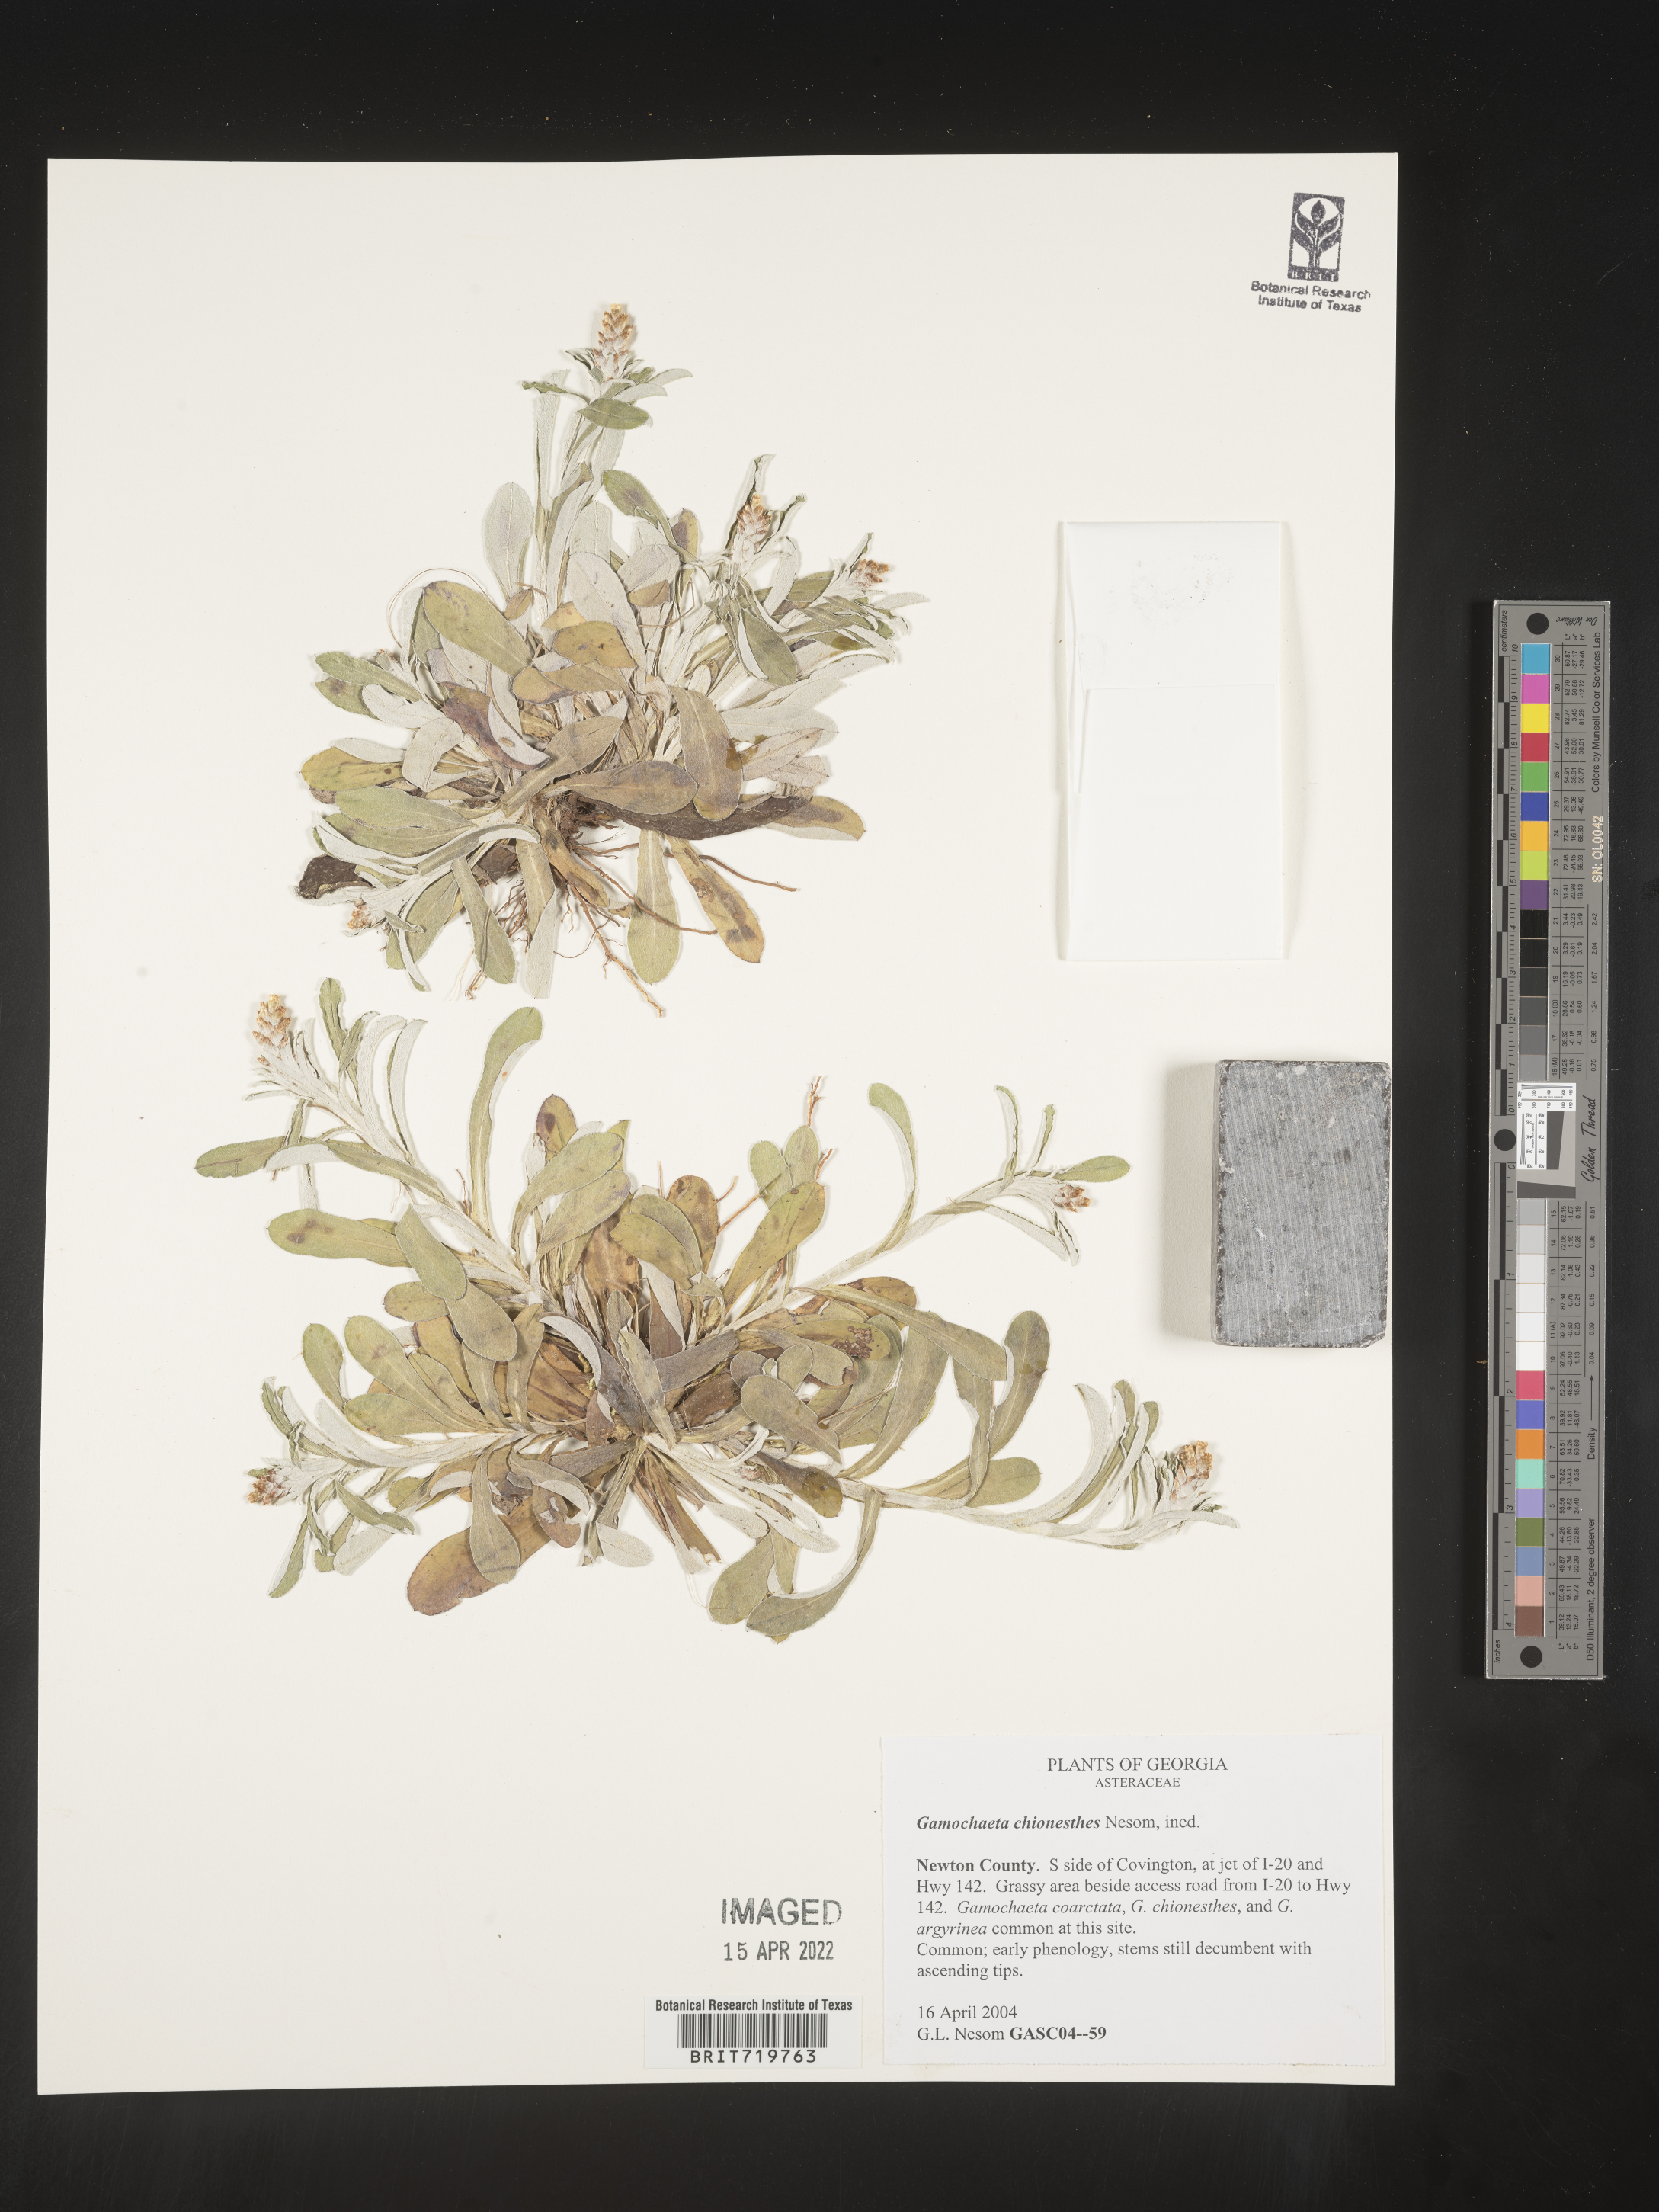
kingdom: Plantae
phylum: Tracheophyta
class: Magnoliopsida
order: Asterales
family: Asteraceae
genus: Gamochaeta
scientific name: Gamochaeta chionesthes
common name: Gray everlasting
